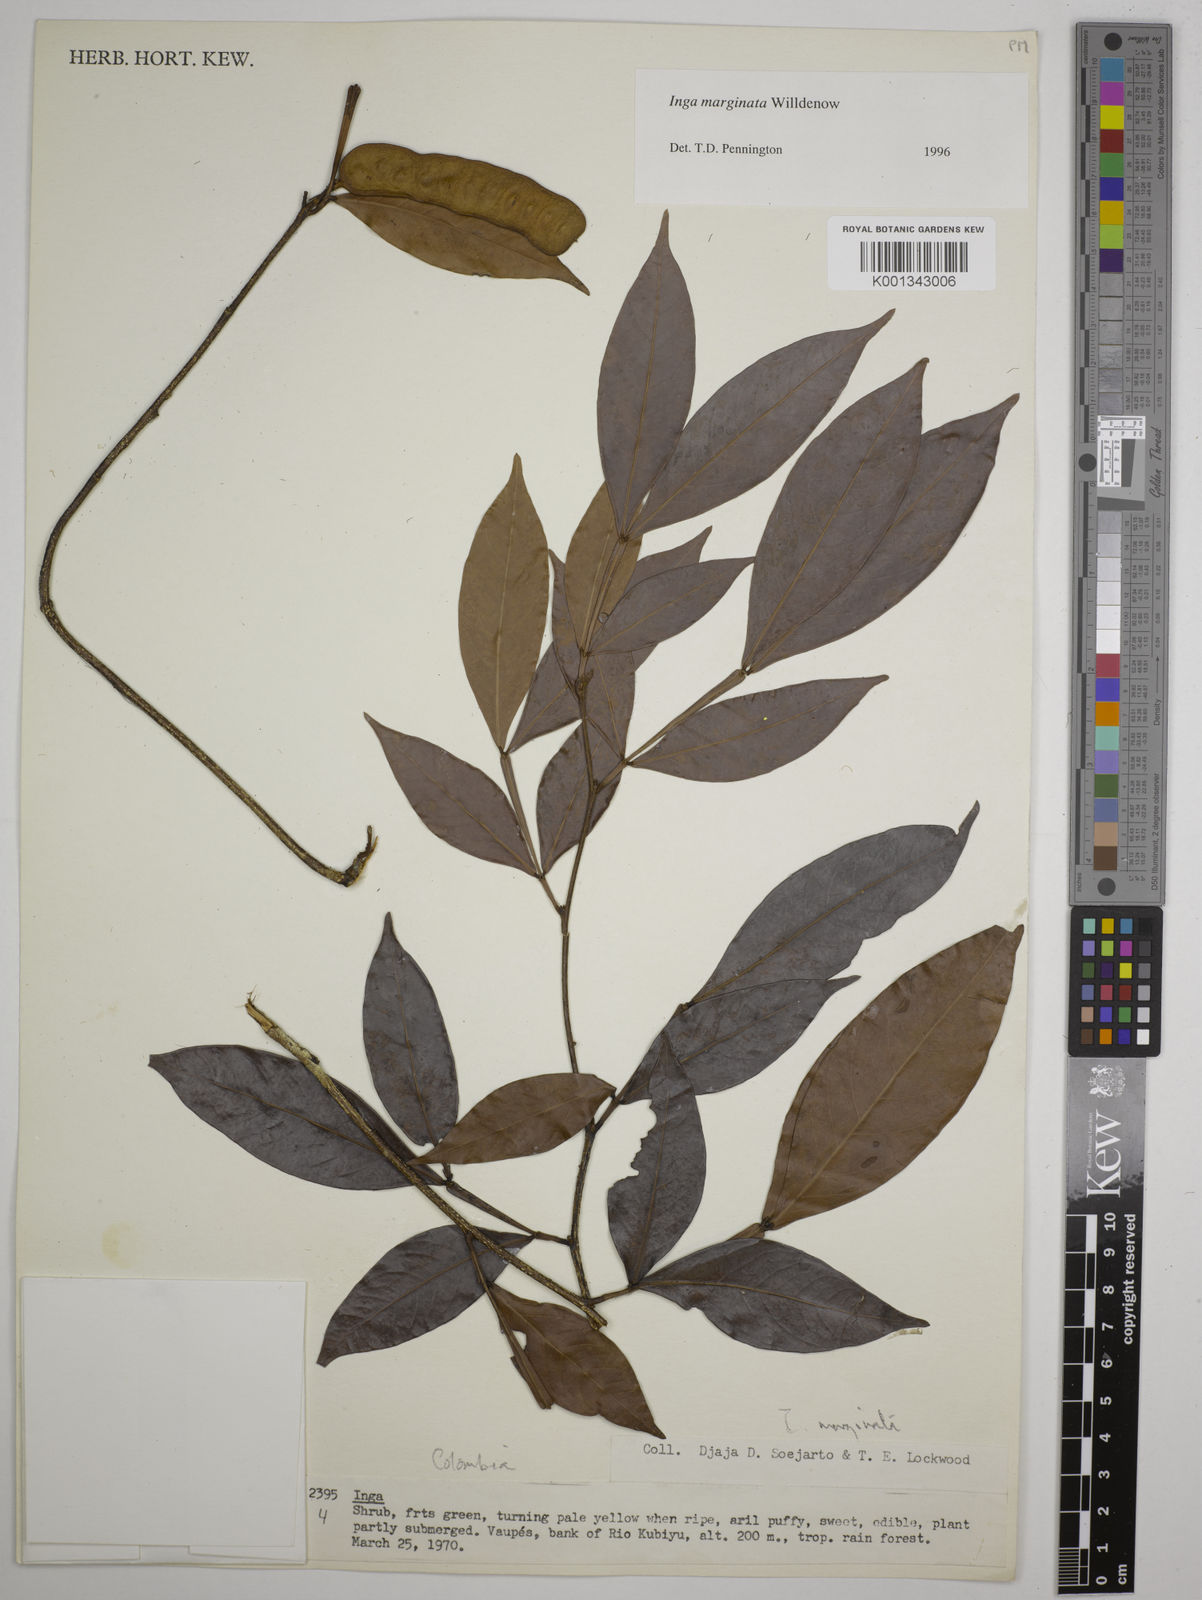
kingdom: Plantae
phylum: Tracheophyta
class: Magnoliopsida
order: Fabales
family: Fabaceae
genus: Inga
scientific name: Inga marginata
